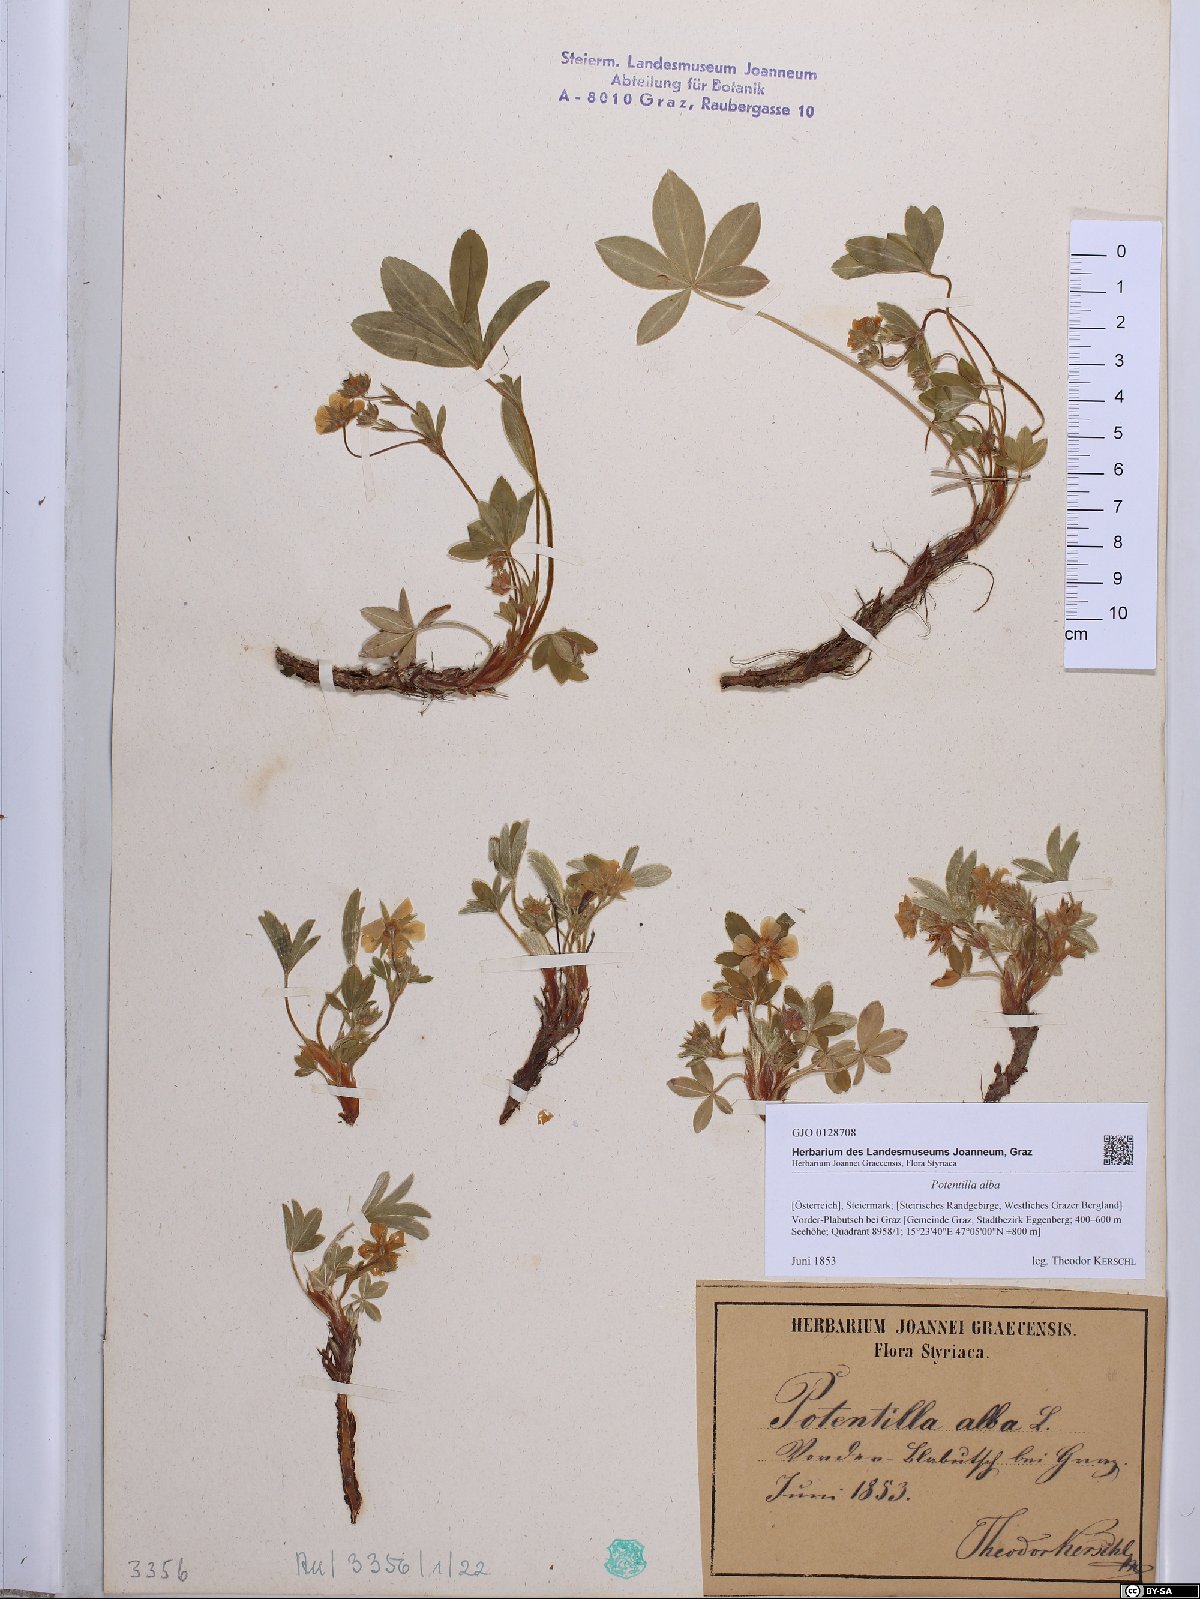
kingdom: Plantae
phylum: Tracheophyta
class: Magnoliopsida
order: Rosales
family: Rosaceae
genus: Potentilla
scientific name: Potentilla alba
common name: White cinquefoil
